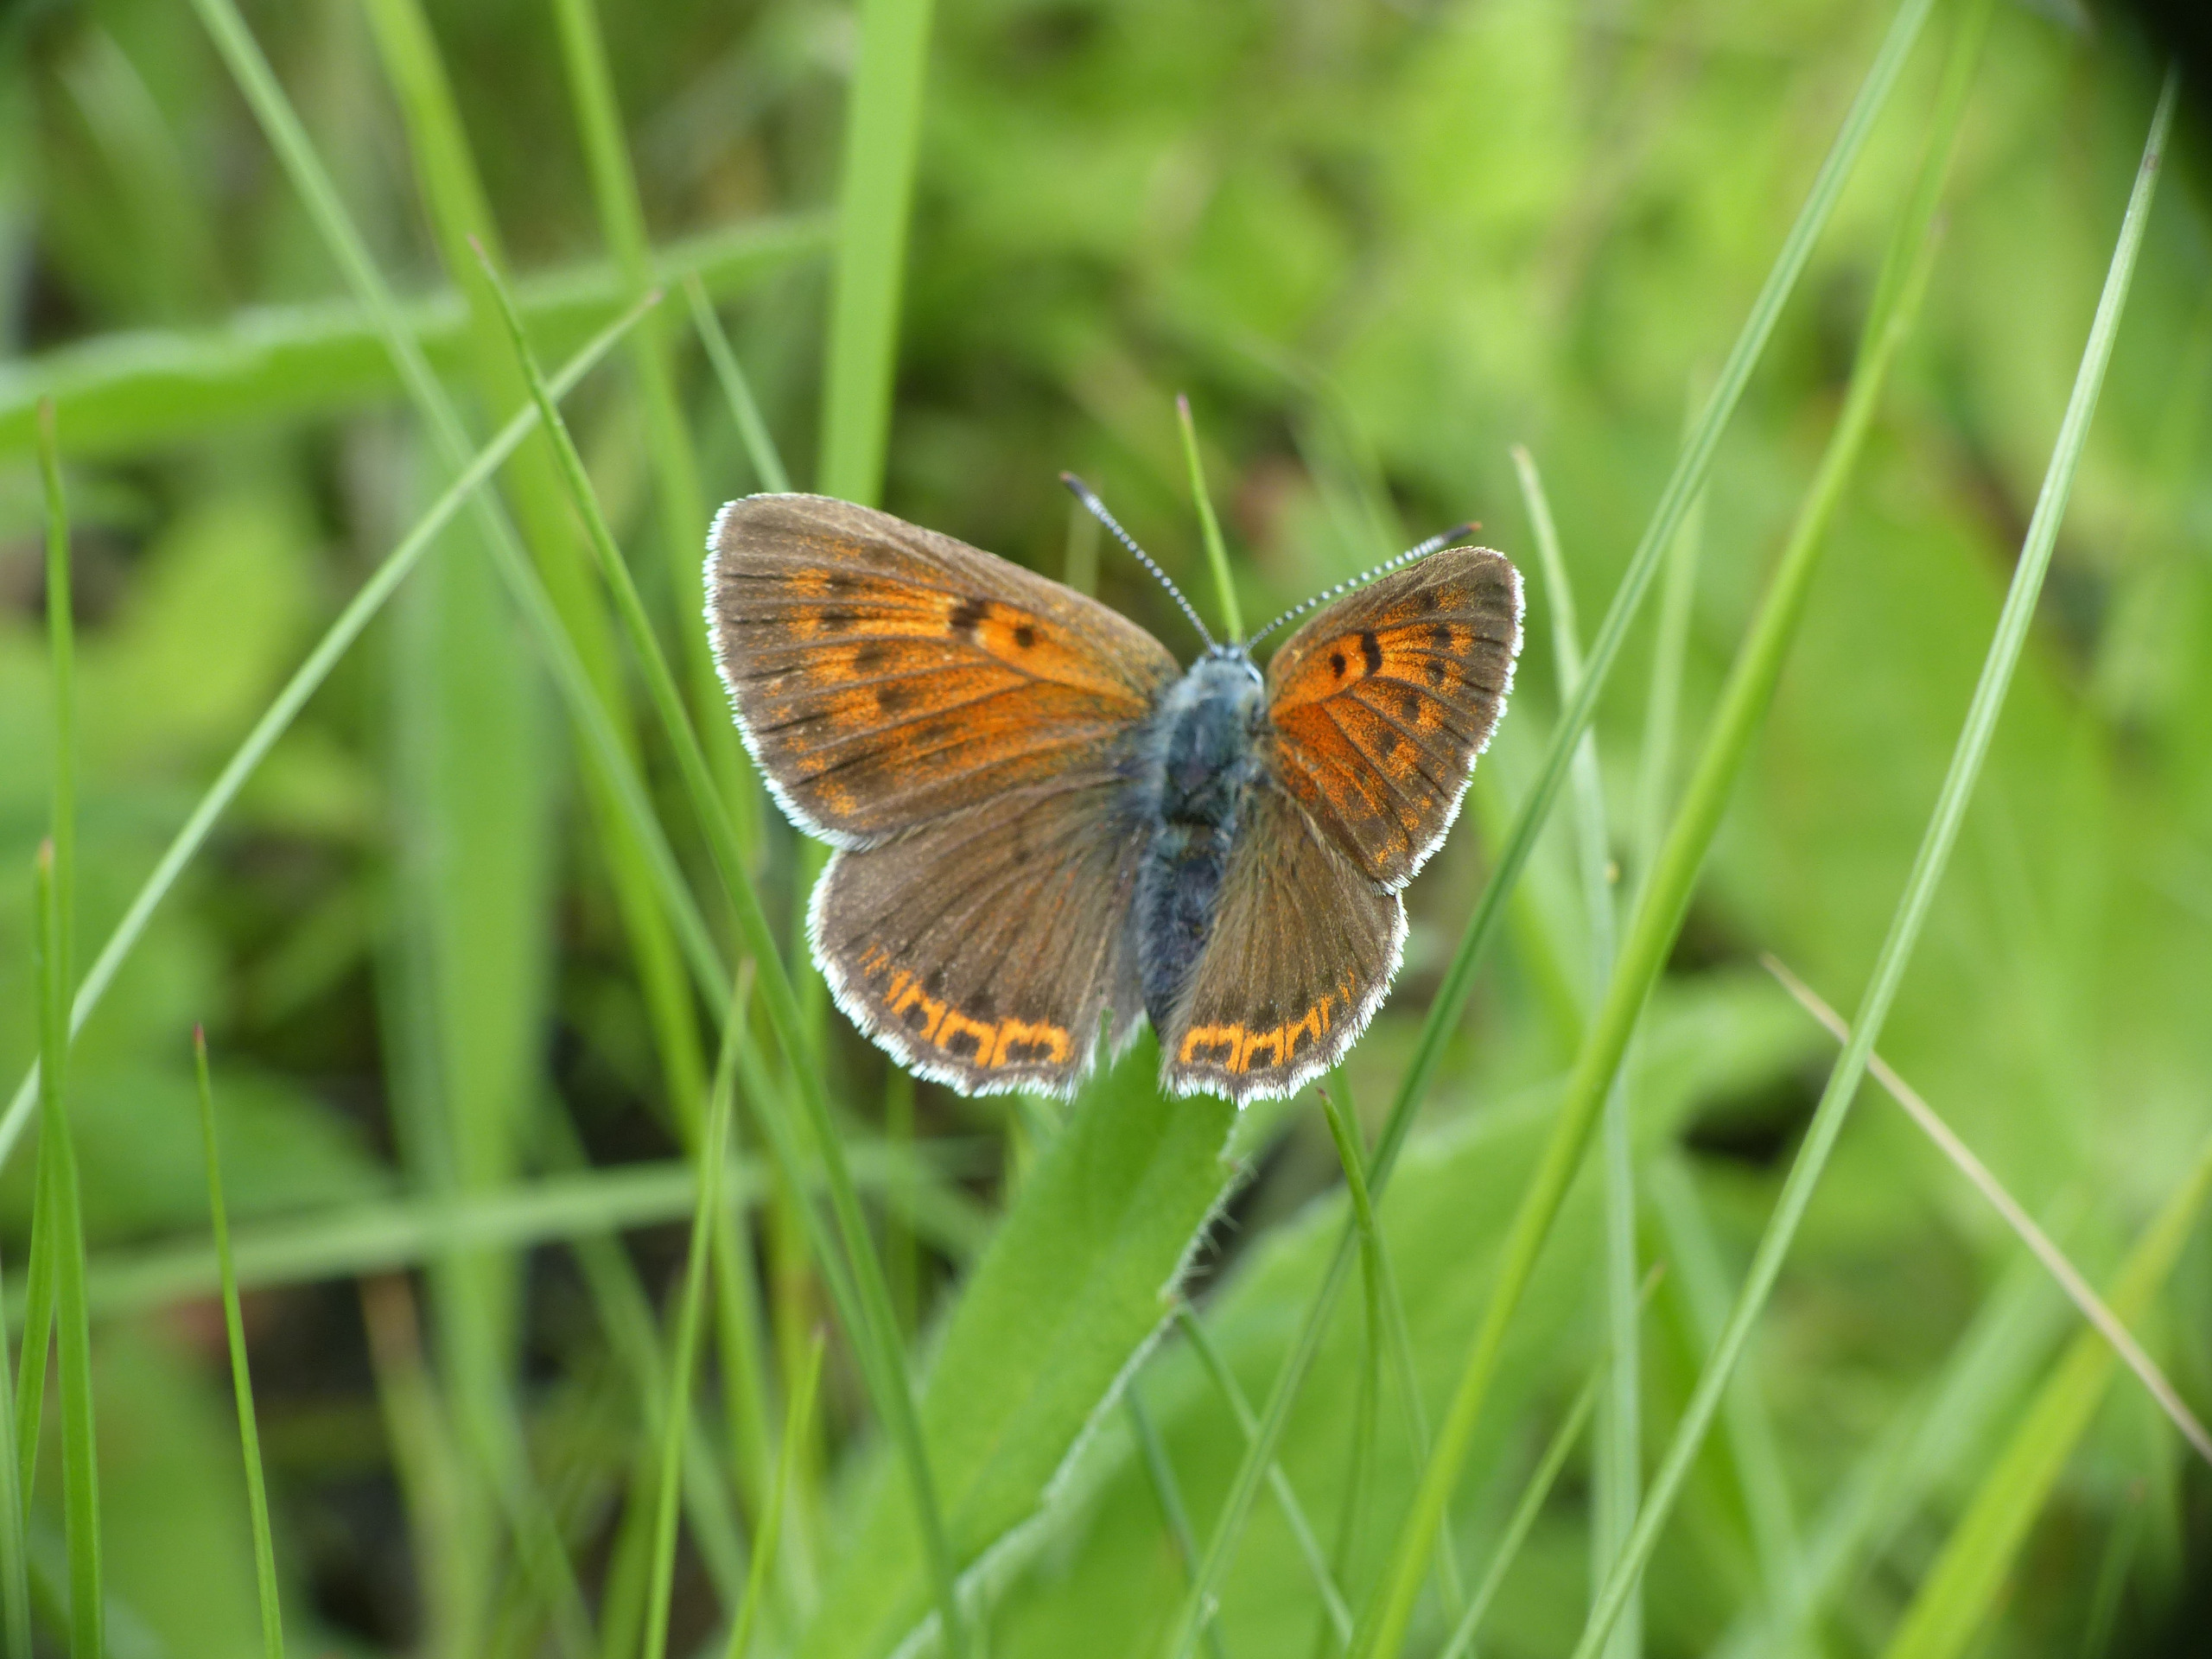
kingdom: Animalia
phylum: Arthropoda
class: Insecta
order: Lepidoptera
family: Lycaenidae
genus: Palaeochrysophanus
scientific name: Palaeochrysophanus hippothoe
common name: Violetrandet ildfugl
